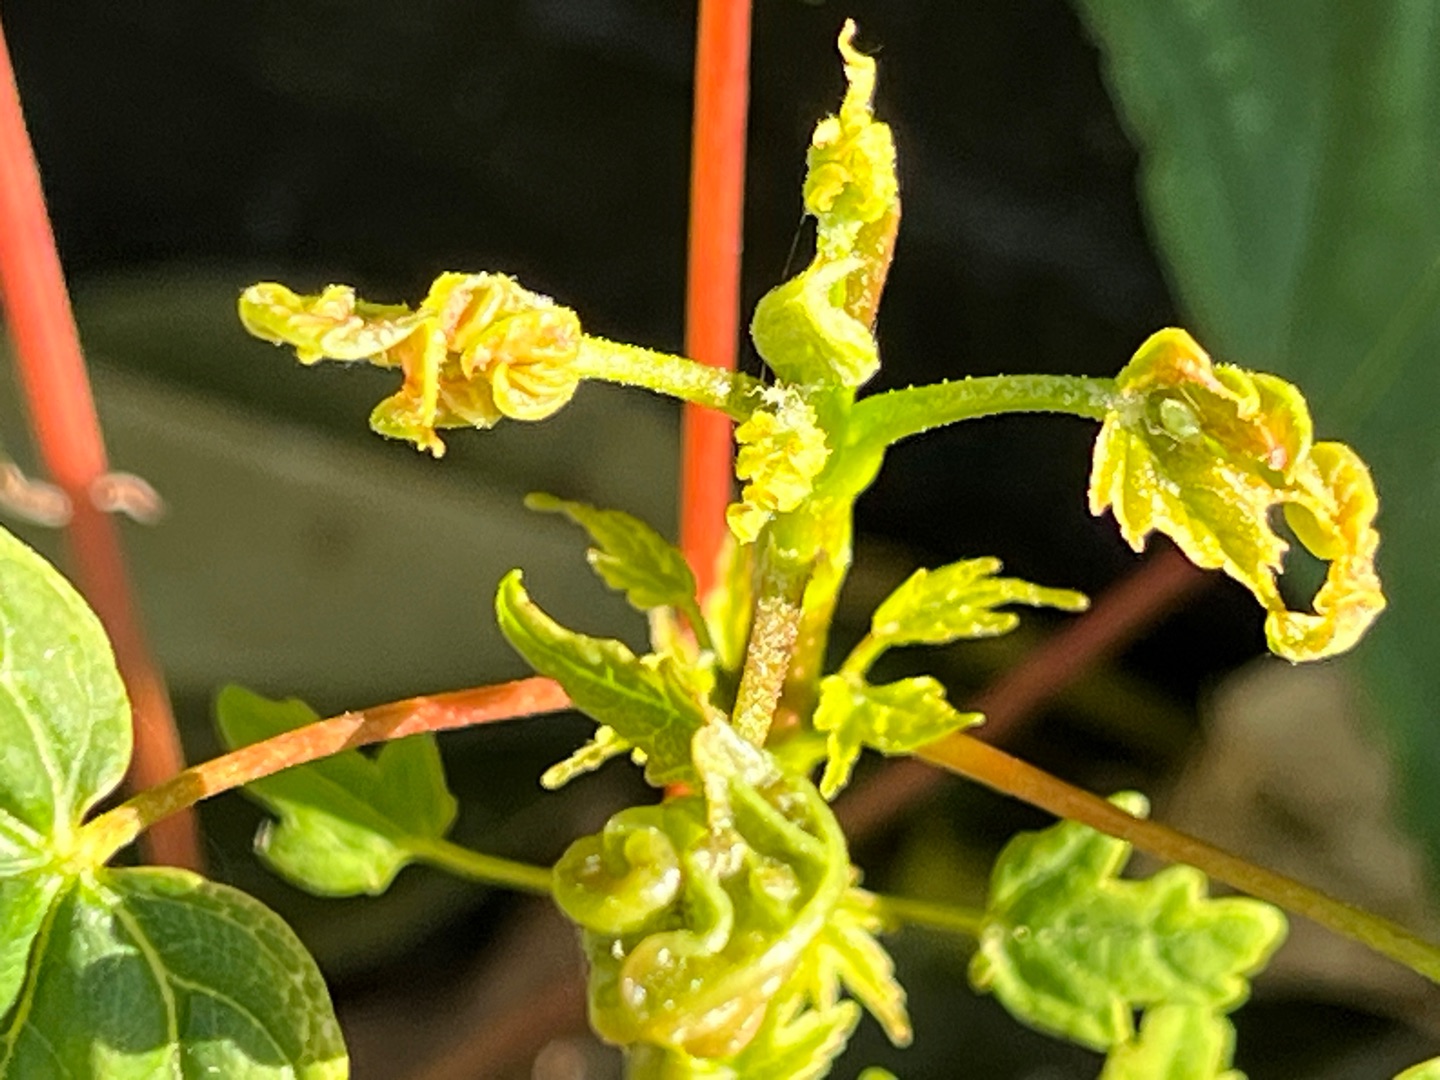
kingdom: Animalia
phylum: Arthropoda
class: Insecta
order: Diptera
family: Cecidomyiidae
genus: Dasineura
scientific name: Dasineura irregularis
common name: Ahornkrusegalmyg
